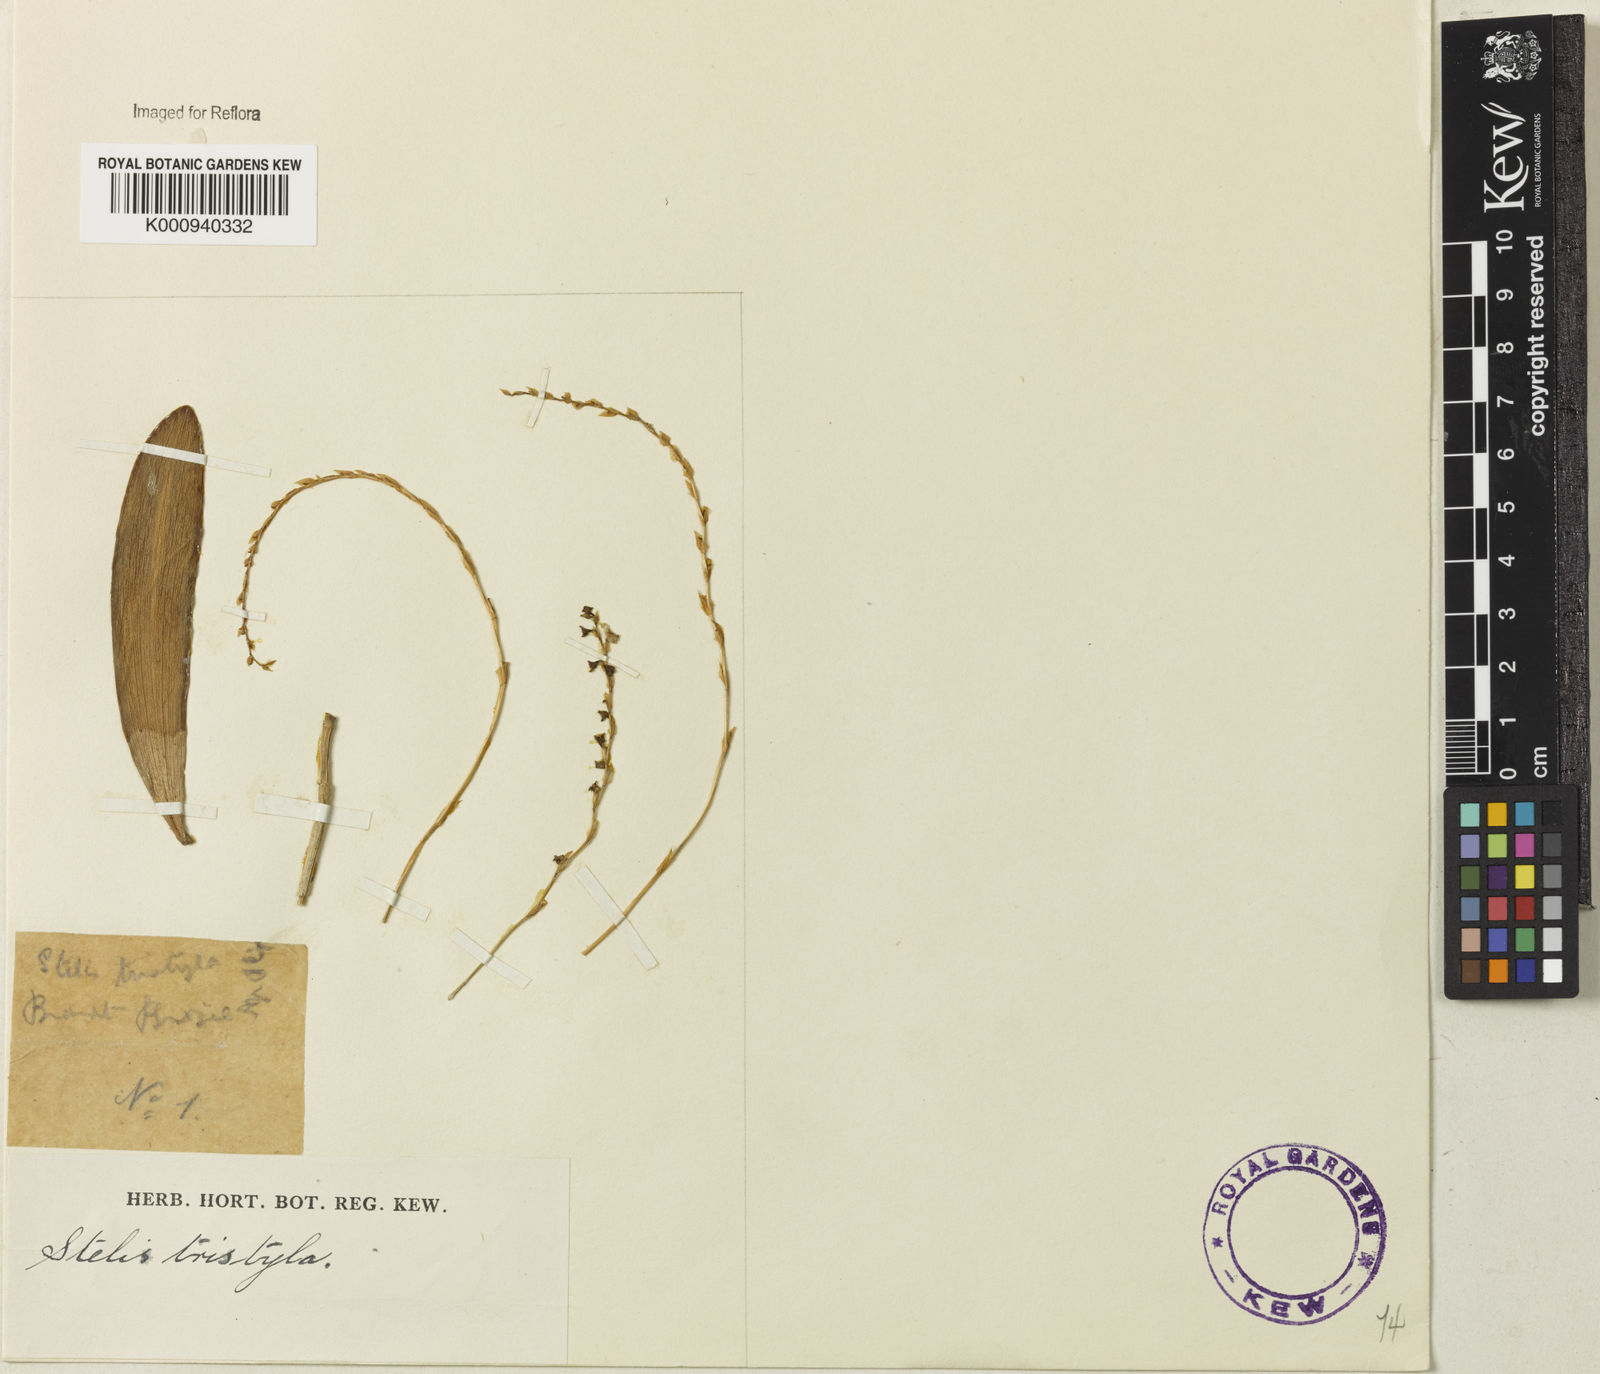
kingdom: Plantae
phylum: Tracheophyta
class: Liliopsida
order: Asparagales
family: Orchidaceae
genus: Stelis
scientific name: Stelis grandiflora
